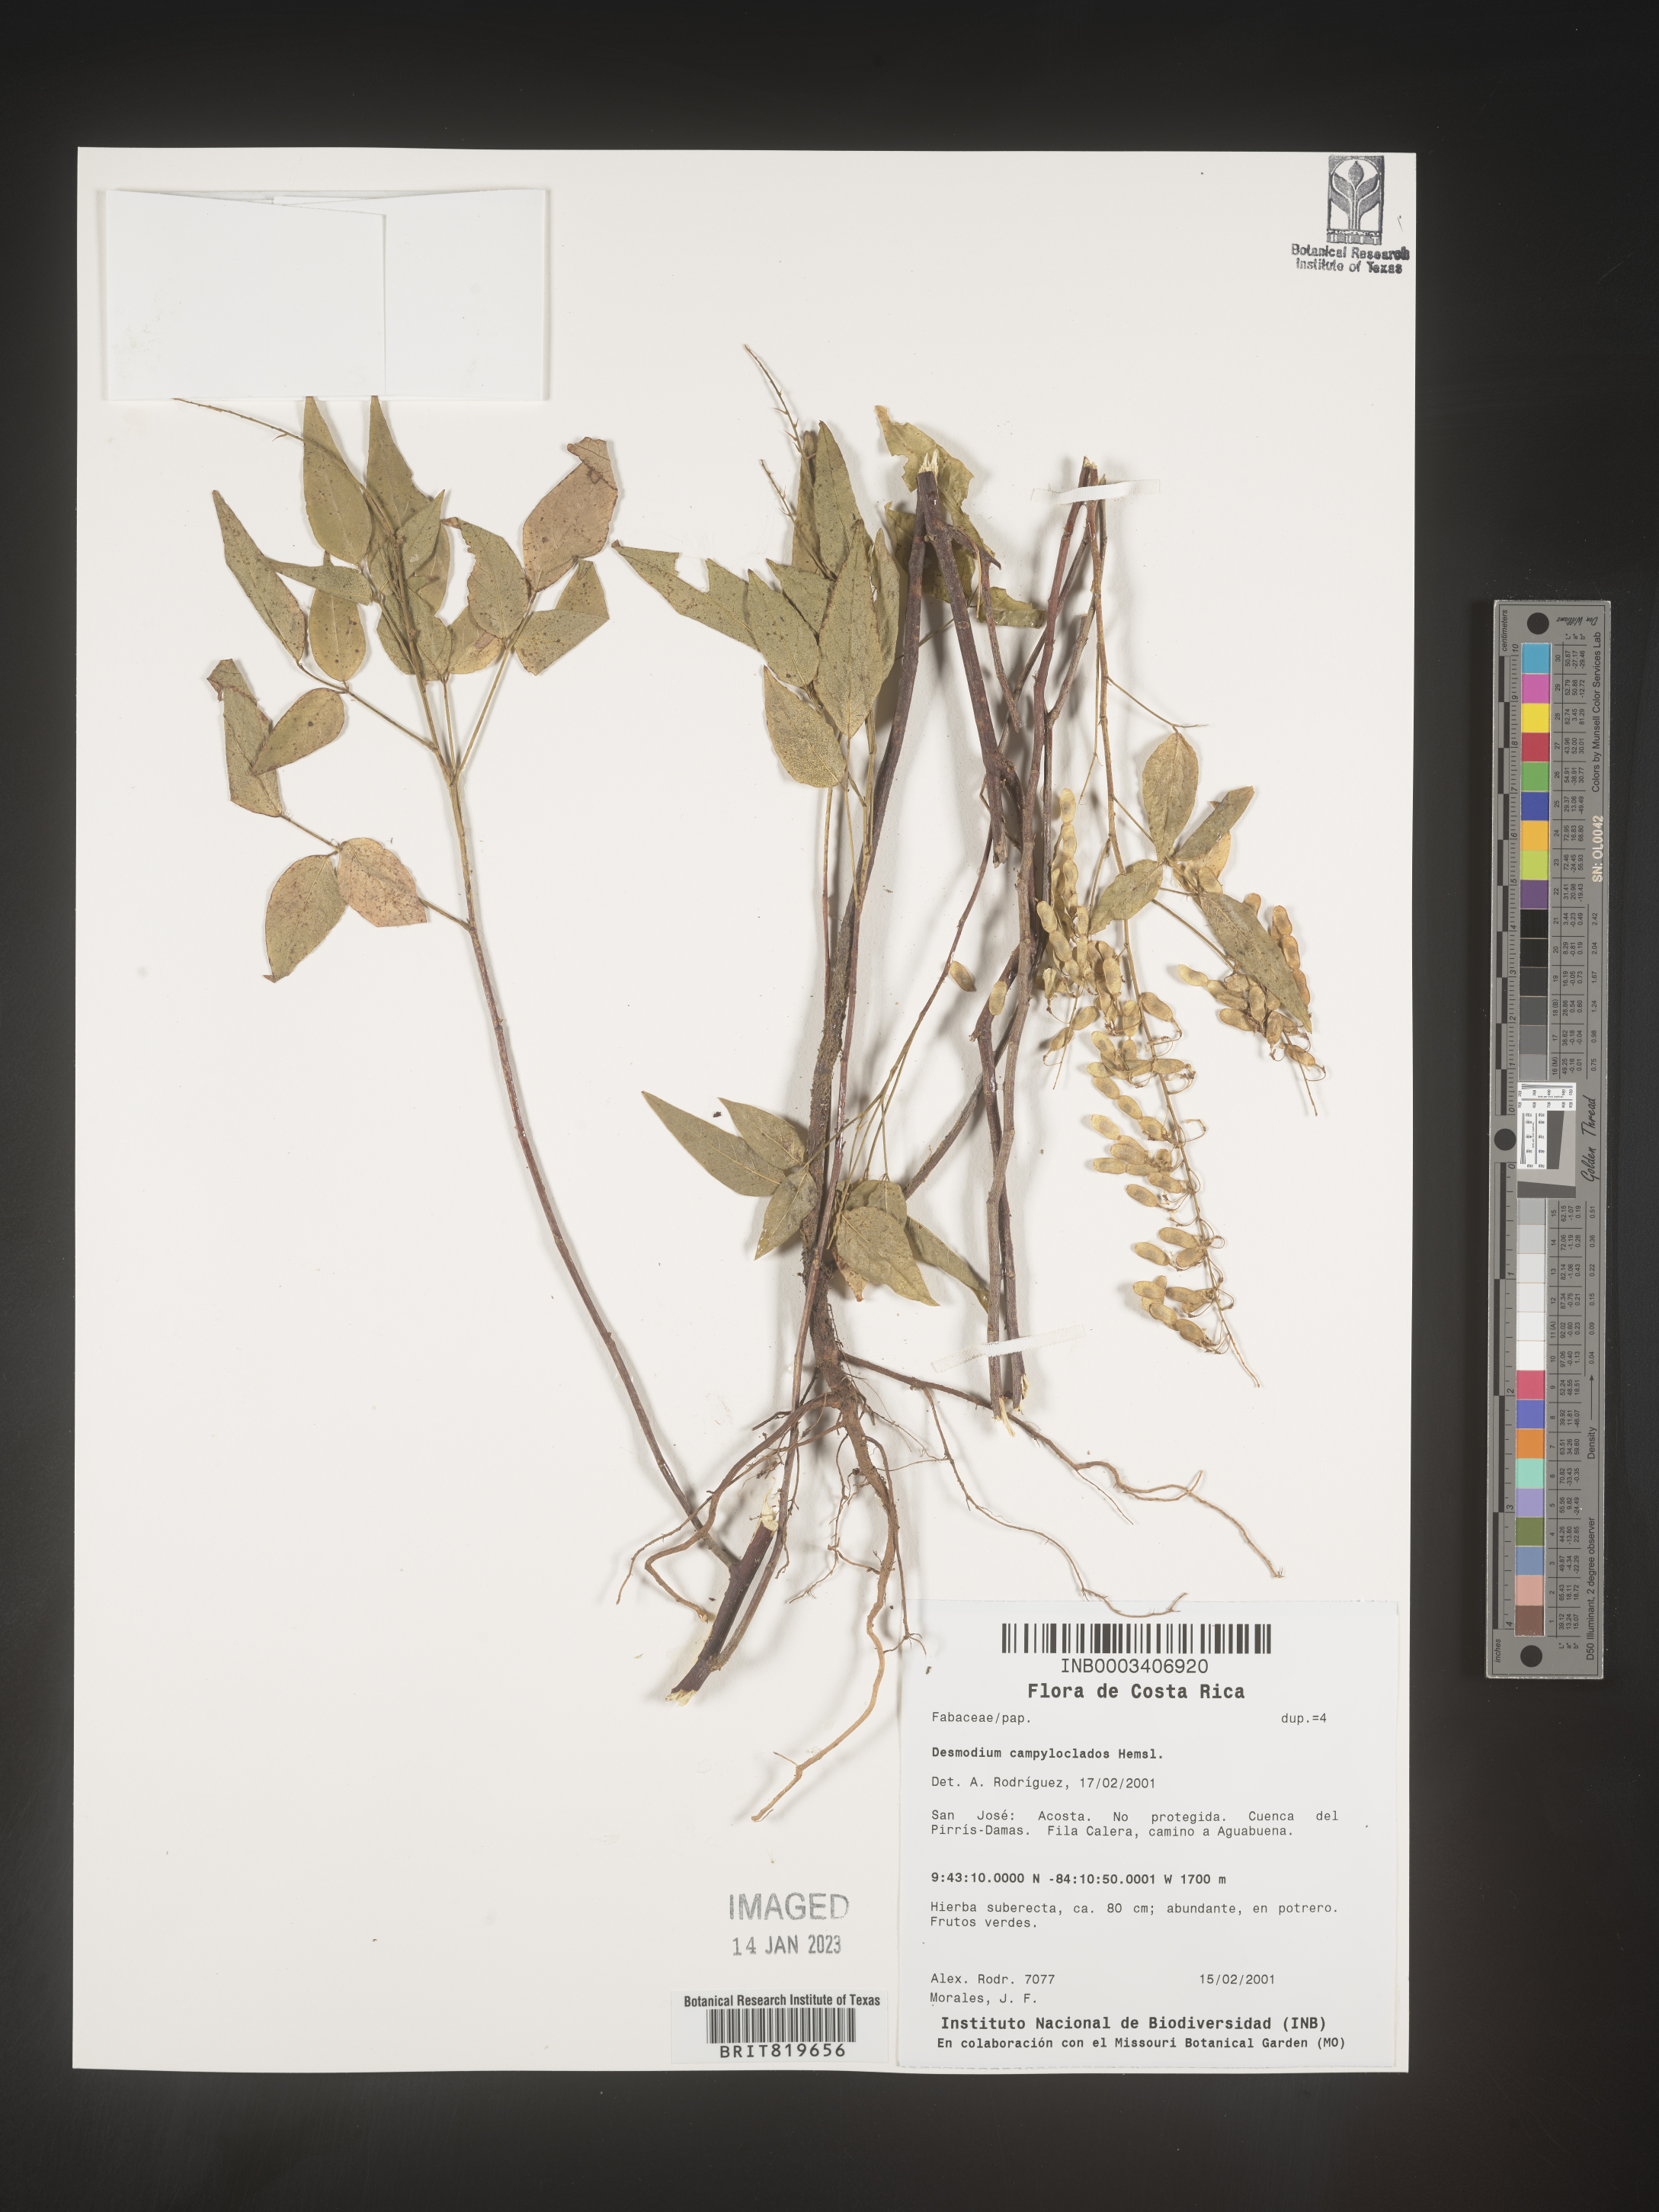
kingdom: Plantae
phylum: Tracheophyta
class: Magnoliopsida
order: Fabales
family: Fabaceae
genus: Desmodium
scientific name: Desmodium
